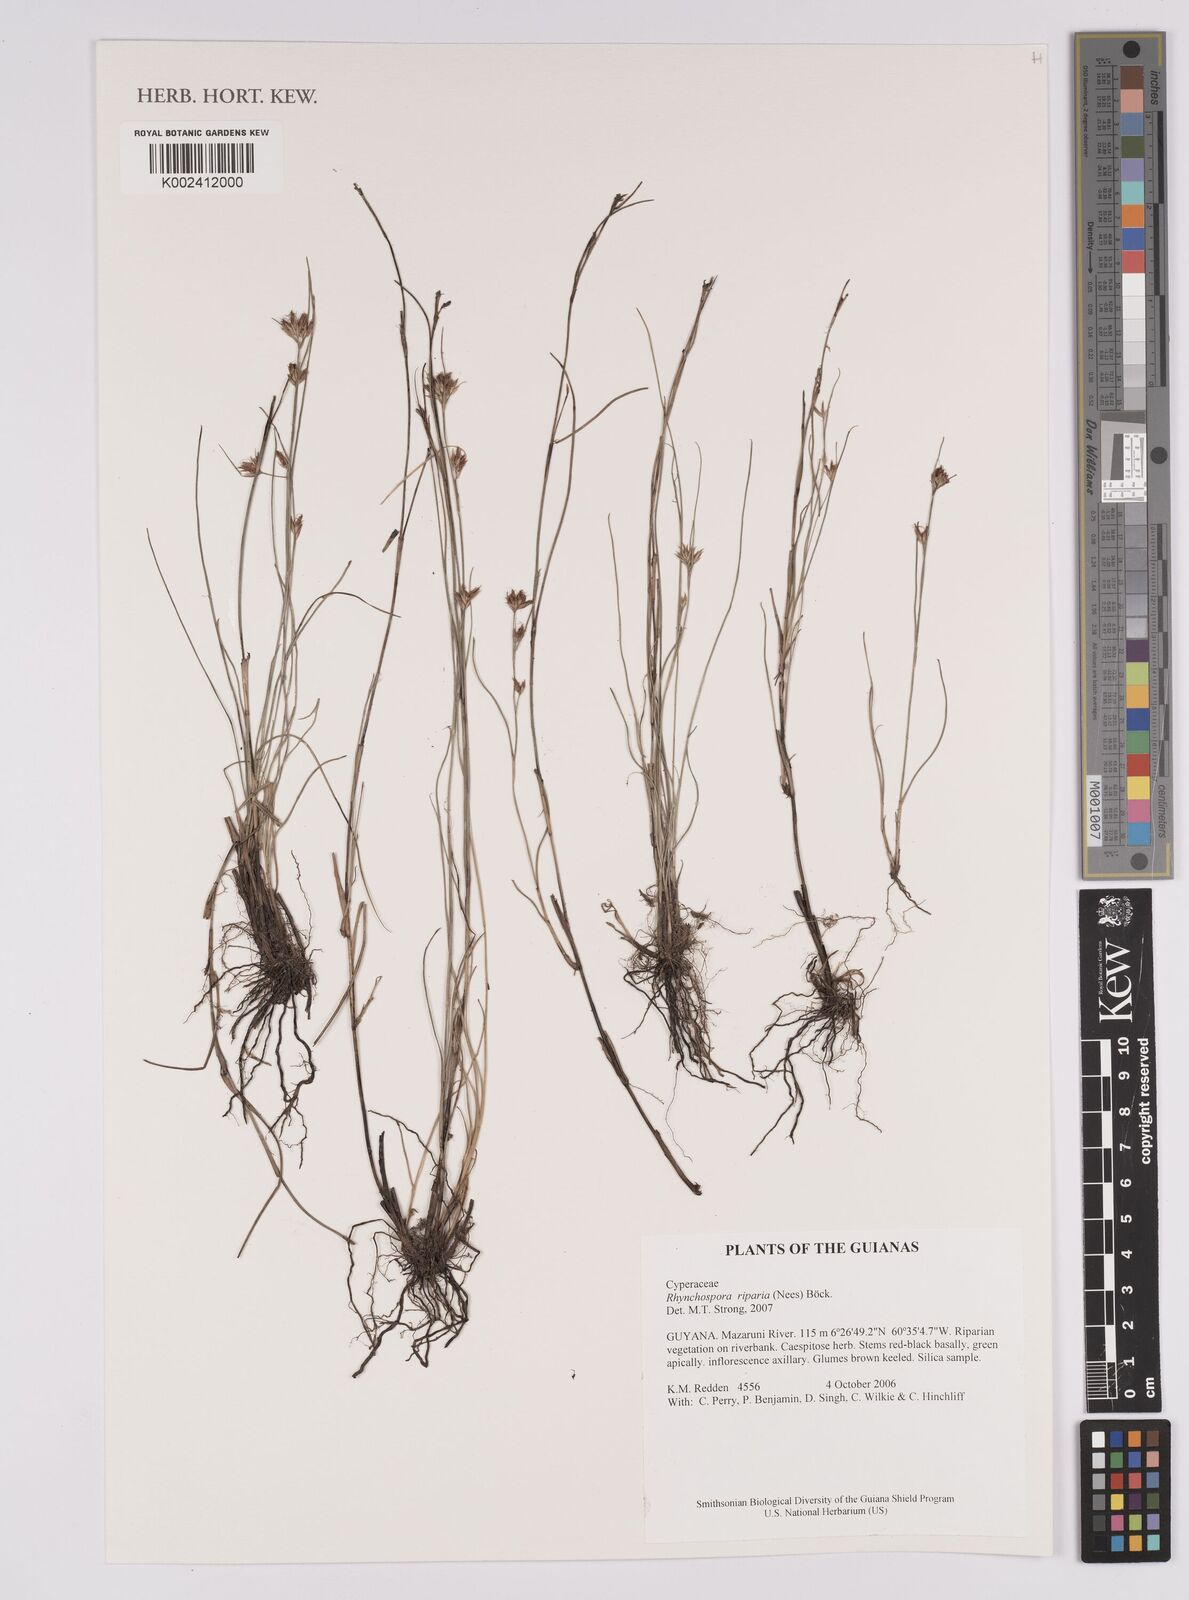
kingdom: Plantae
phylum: Tracheophyta
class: Liliopsida
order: Poales
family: Cyperaceae
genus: Rhynchospora
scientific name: Rhynchospora riparia
